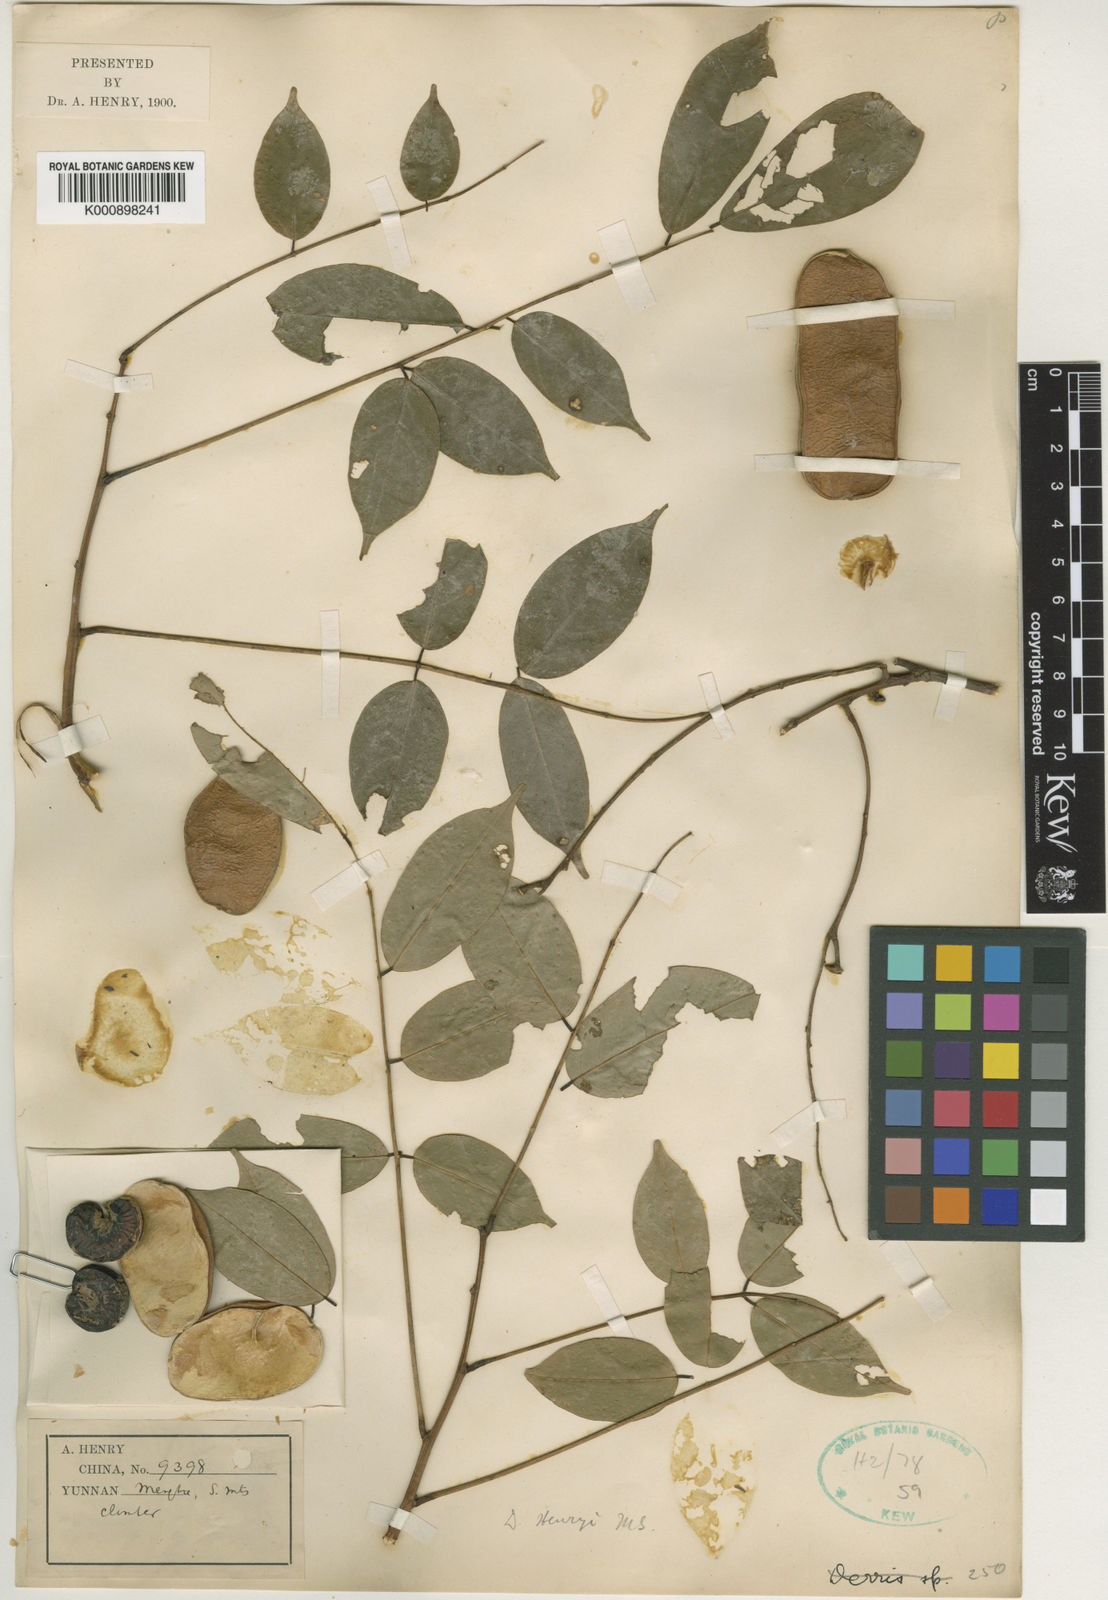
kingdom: Plantae
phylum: Tracheophyta
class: Magnoliopsida
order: Fabales
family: Fabaceae
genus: Derris
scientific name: Derris henryi
